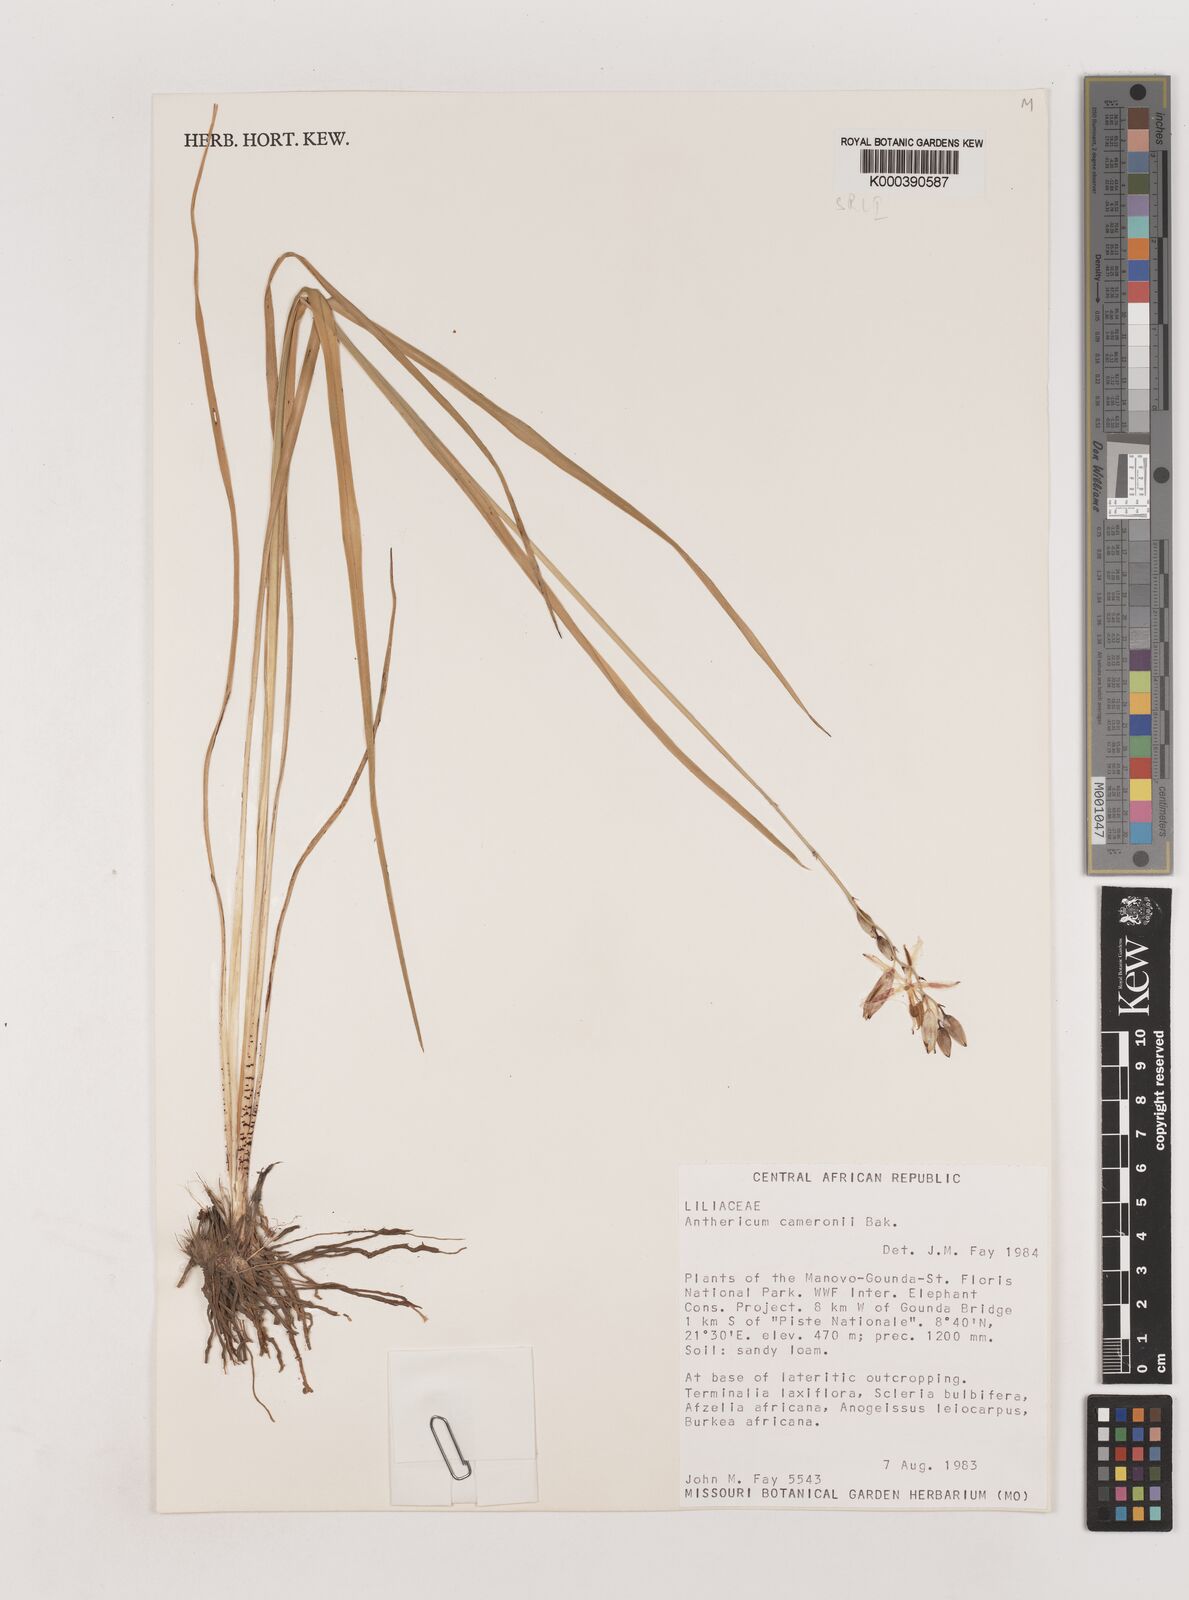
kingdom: Plantae
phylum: Tracheophyta
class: Liliopsida
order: Asparagales
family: Asparagaceae
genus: Chlorophytum
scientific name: Chlorophytum cameronii
